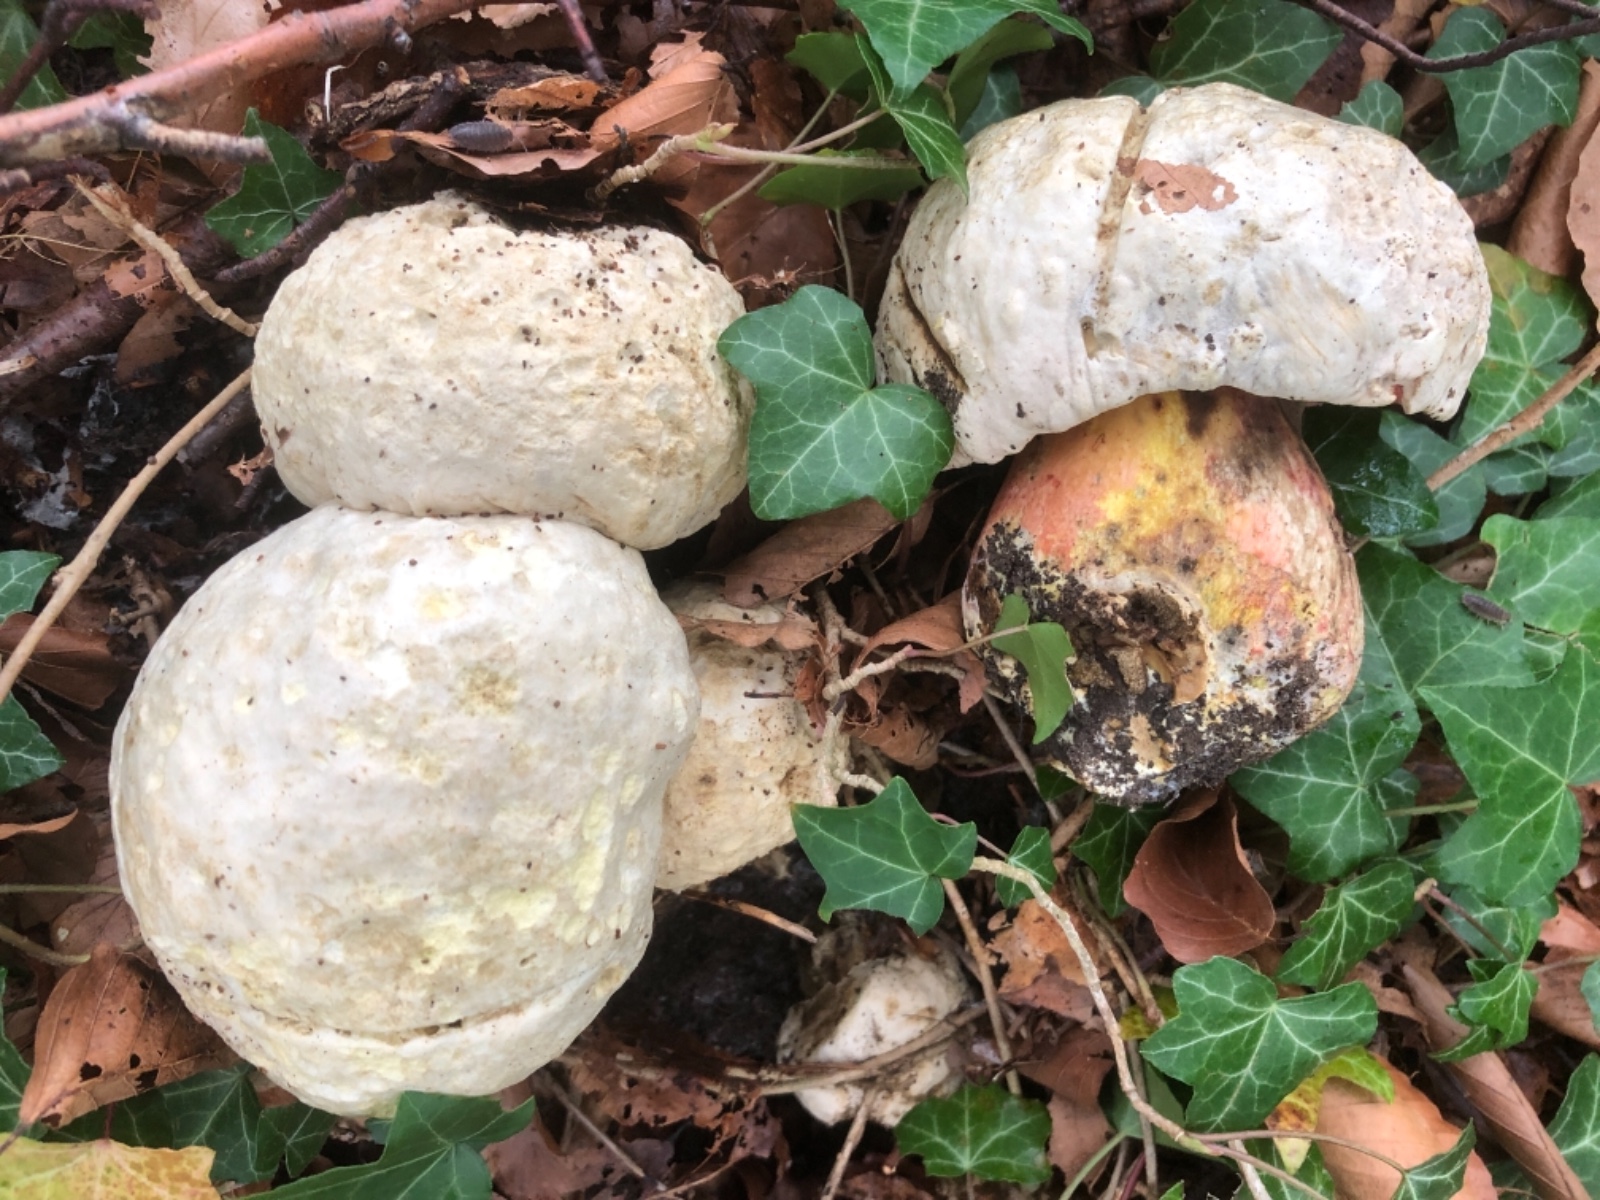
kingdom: Fungi
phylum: Basidiomycota
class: Agaricomycetes
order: Boletales
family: Boletaceae
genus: Rubroboletus
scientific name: Rubroboletus satanas
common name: Satans rørhat
